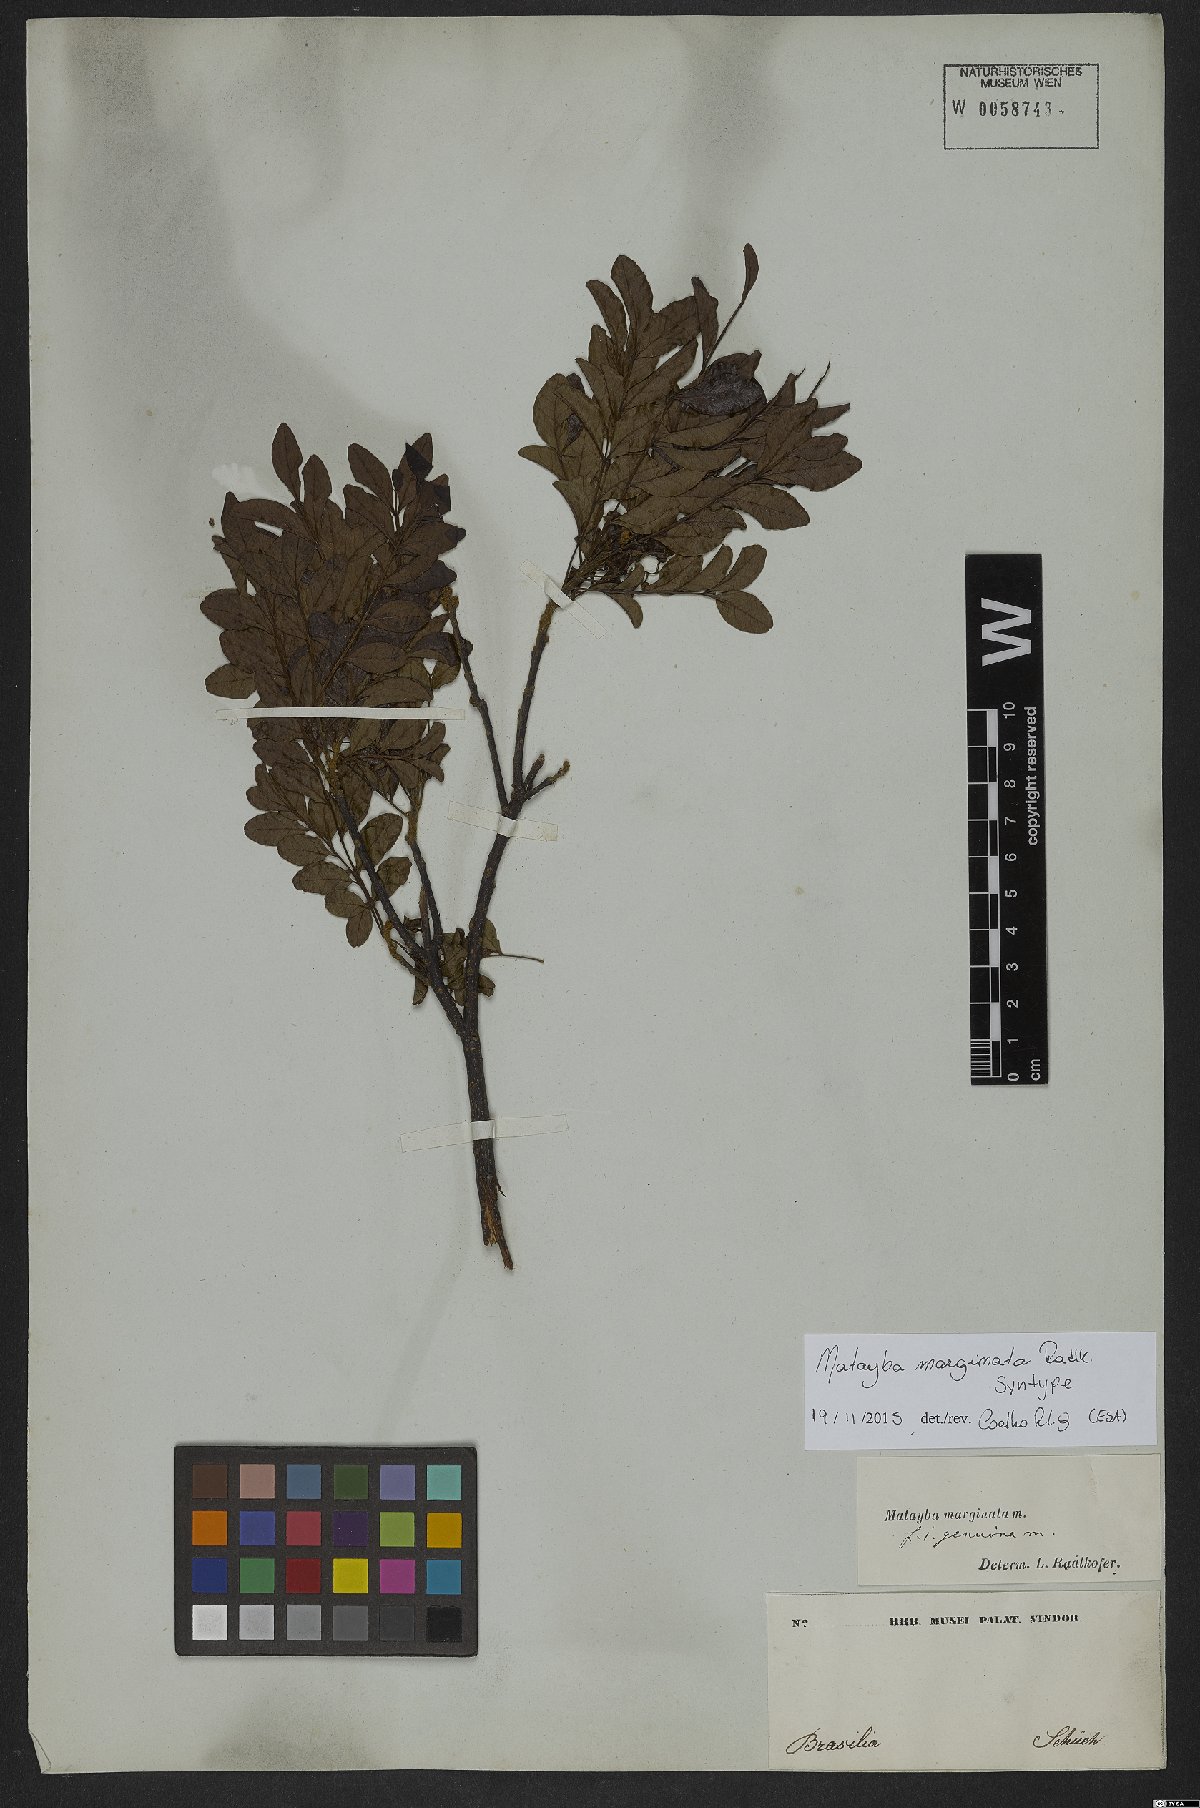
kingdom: Plantae
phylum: Tracheophyta
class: Magnoliopsida
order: Sapindales
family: Sapindaceae
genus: Matayba
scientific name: Matayba marginata
